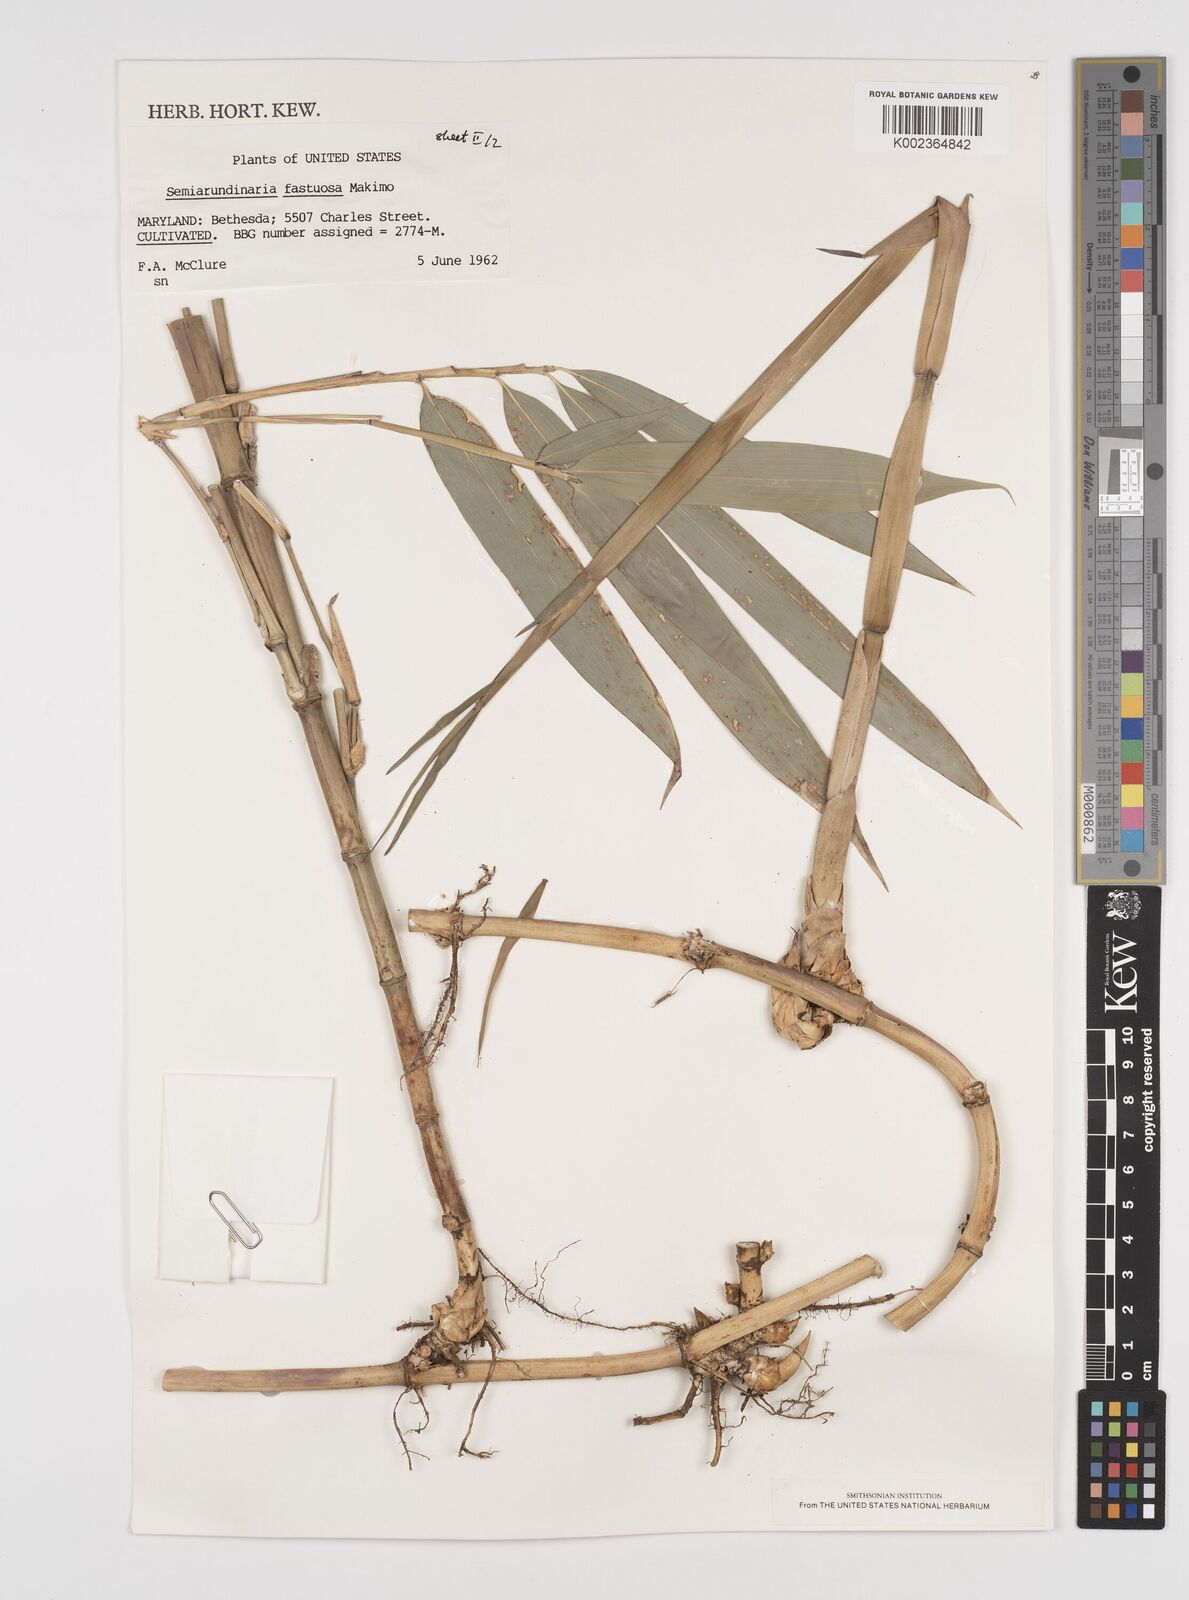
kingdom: Plantae
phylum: Tracheophyta
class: Liliopsida
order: Poales
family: Poaceae
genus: Semiarundinaria
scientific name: Semiarundinaria
